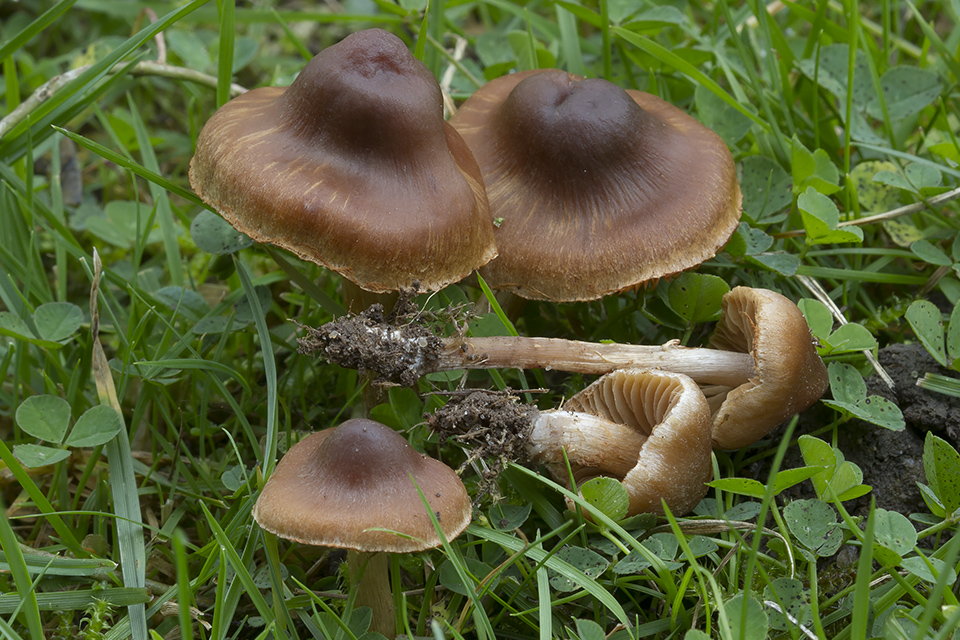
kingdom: Fungi
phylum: Basidiomycota
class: Agaricomycetes
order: Agaricales
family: Cortinariaceae
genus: Cortinarius
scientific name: Cortinarius incisior
